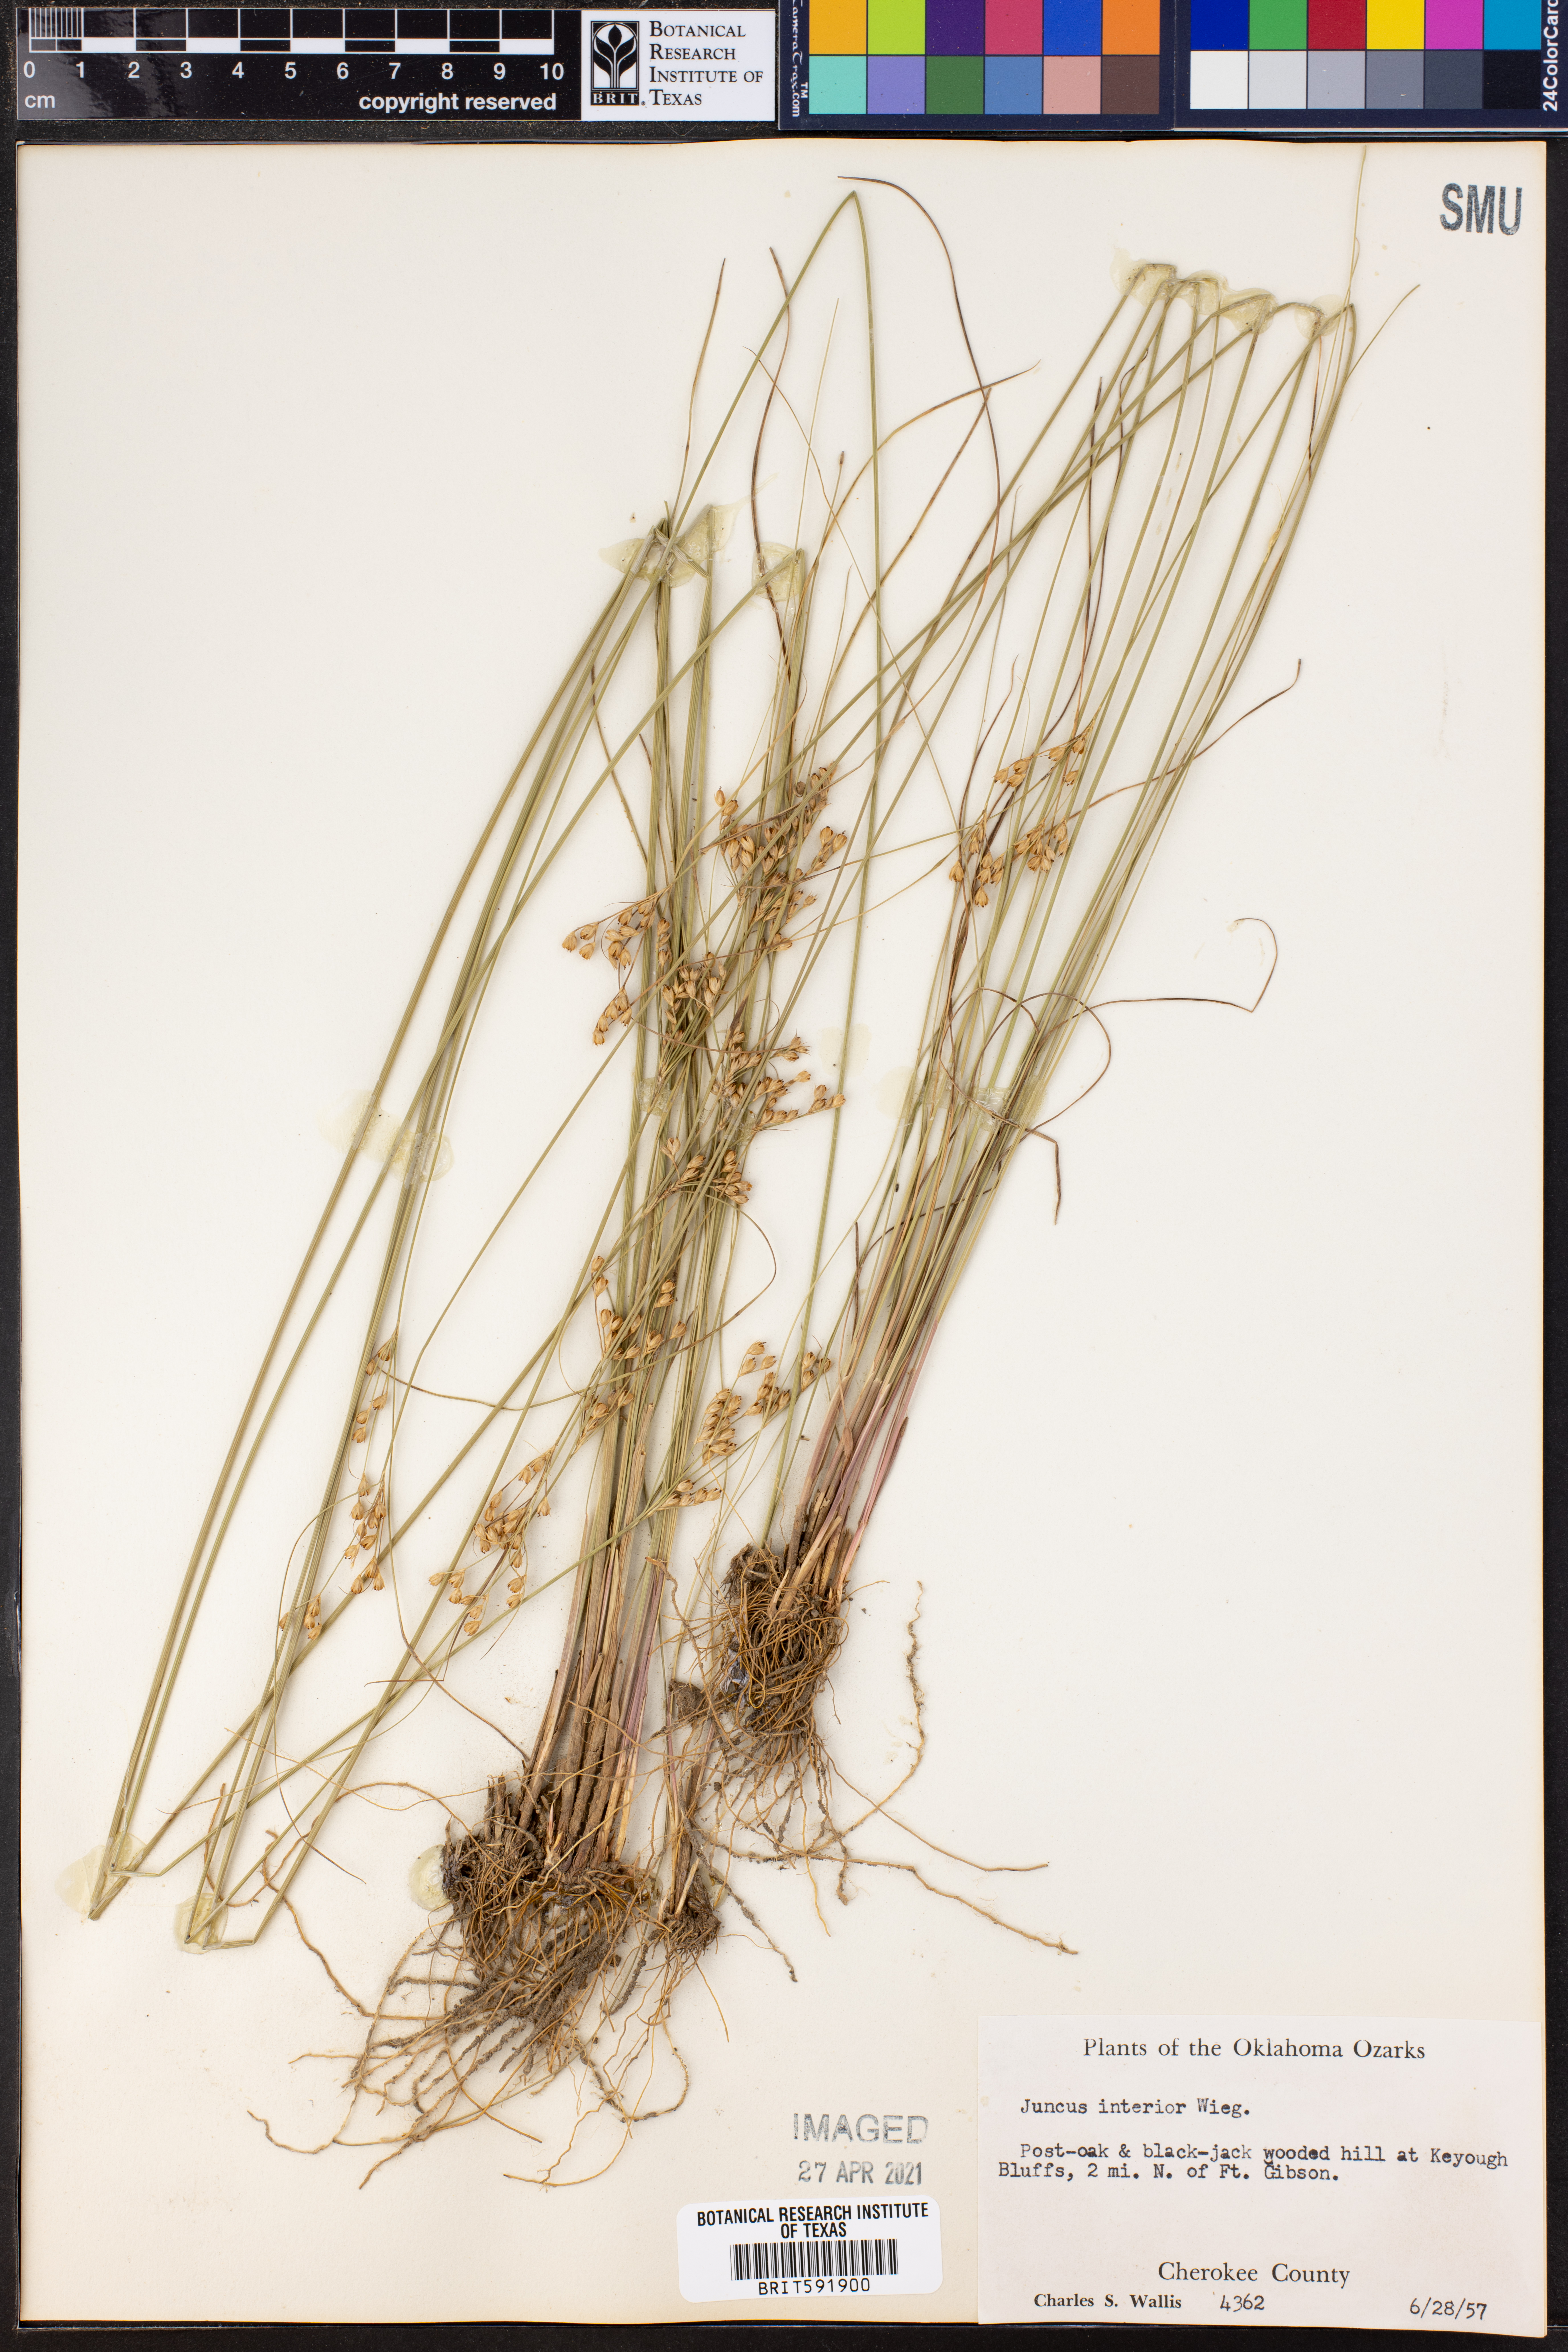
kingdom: Plantae
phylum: Tracheophyta
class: Liliopsida
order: Poales
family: Juncaceae
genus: Juncus
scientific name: Juncus interior
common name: Interior rush
